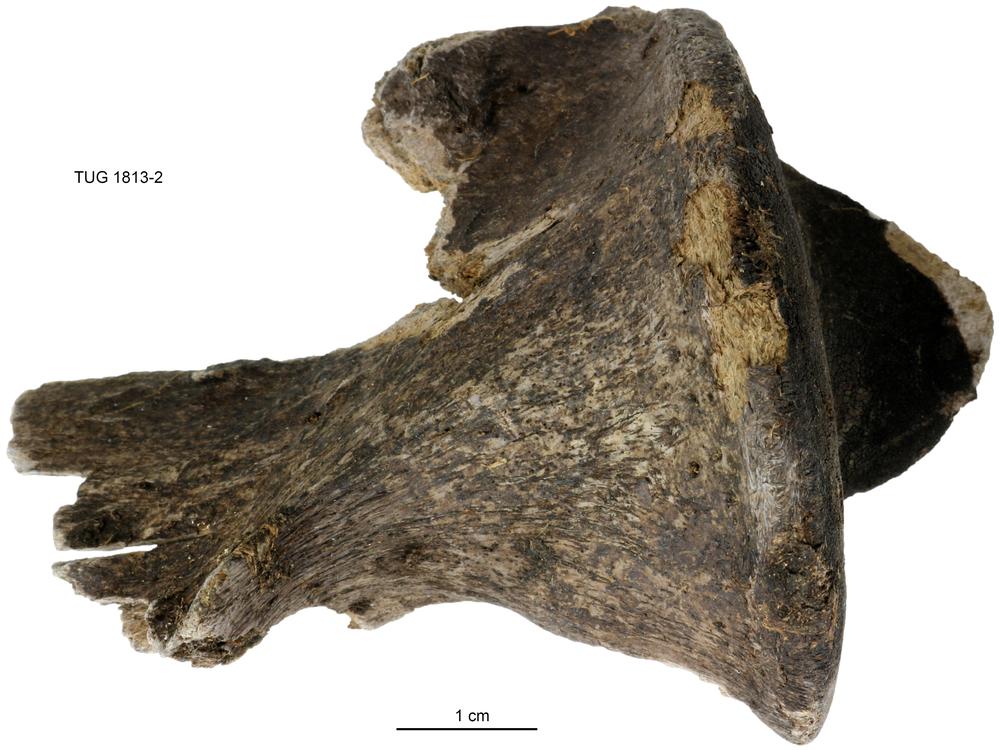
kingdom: Animalia
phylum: Chordata
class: Mammalia
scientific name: Mammalia
